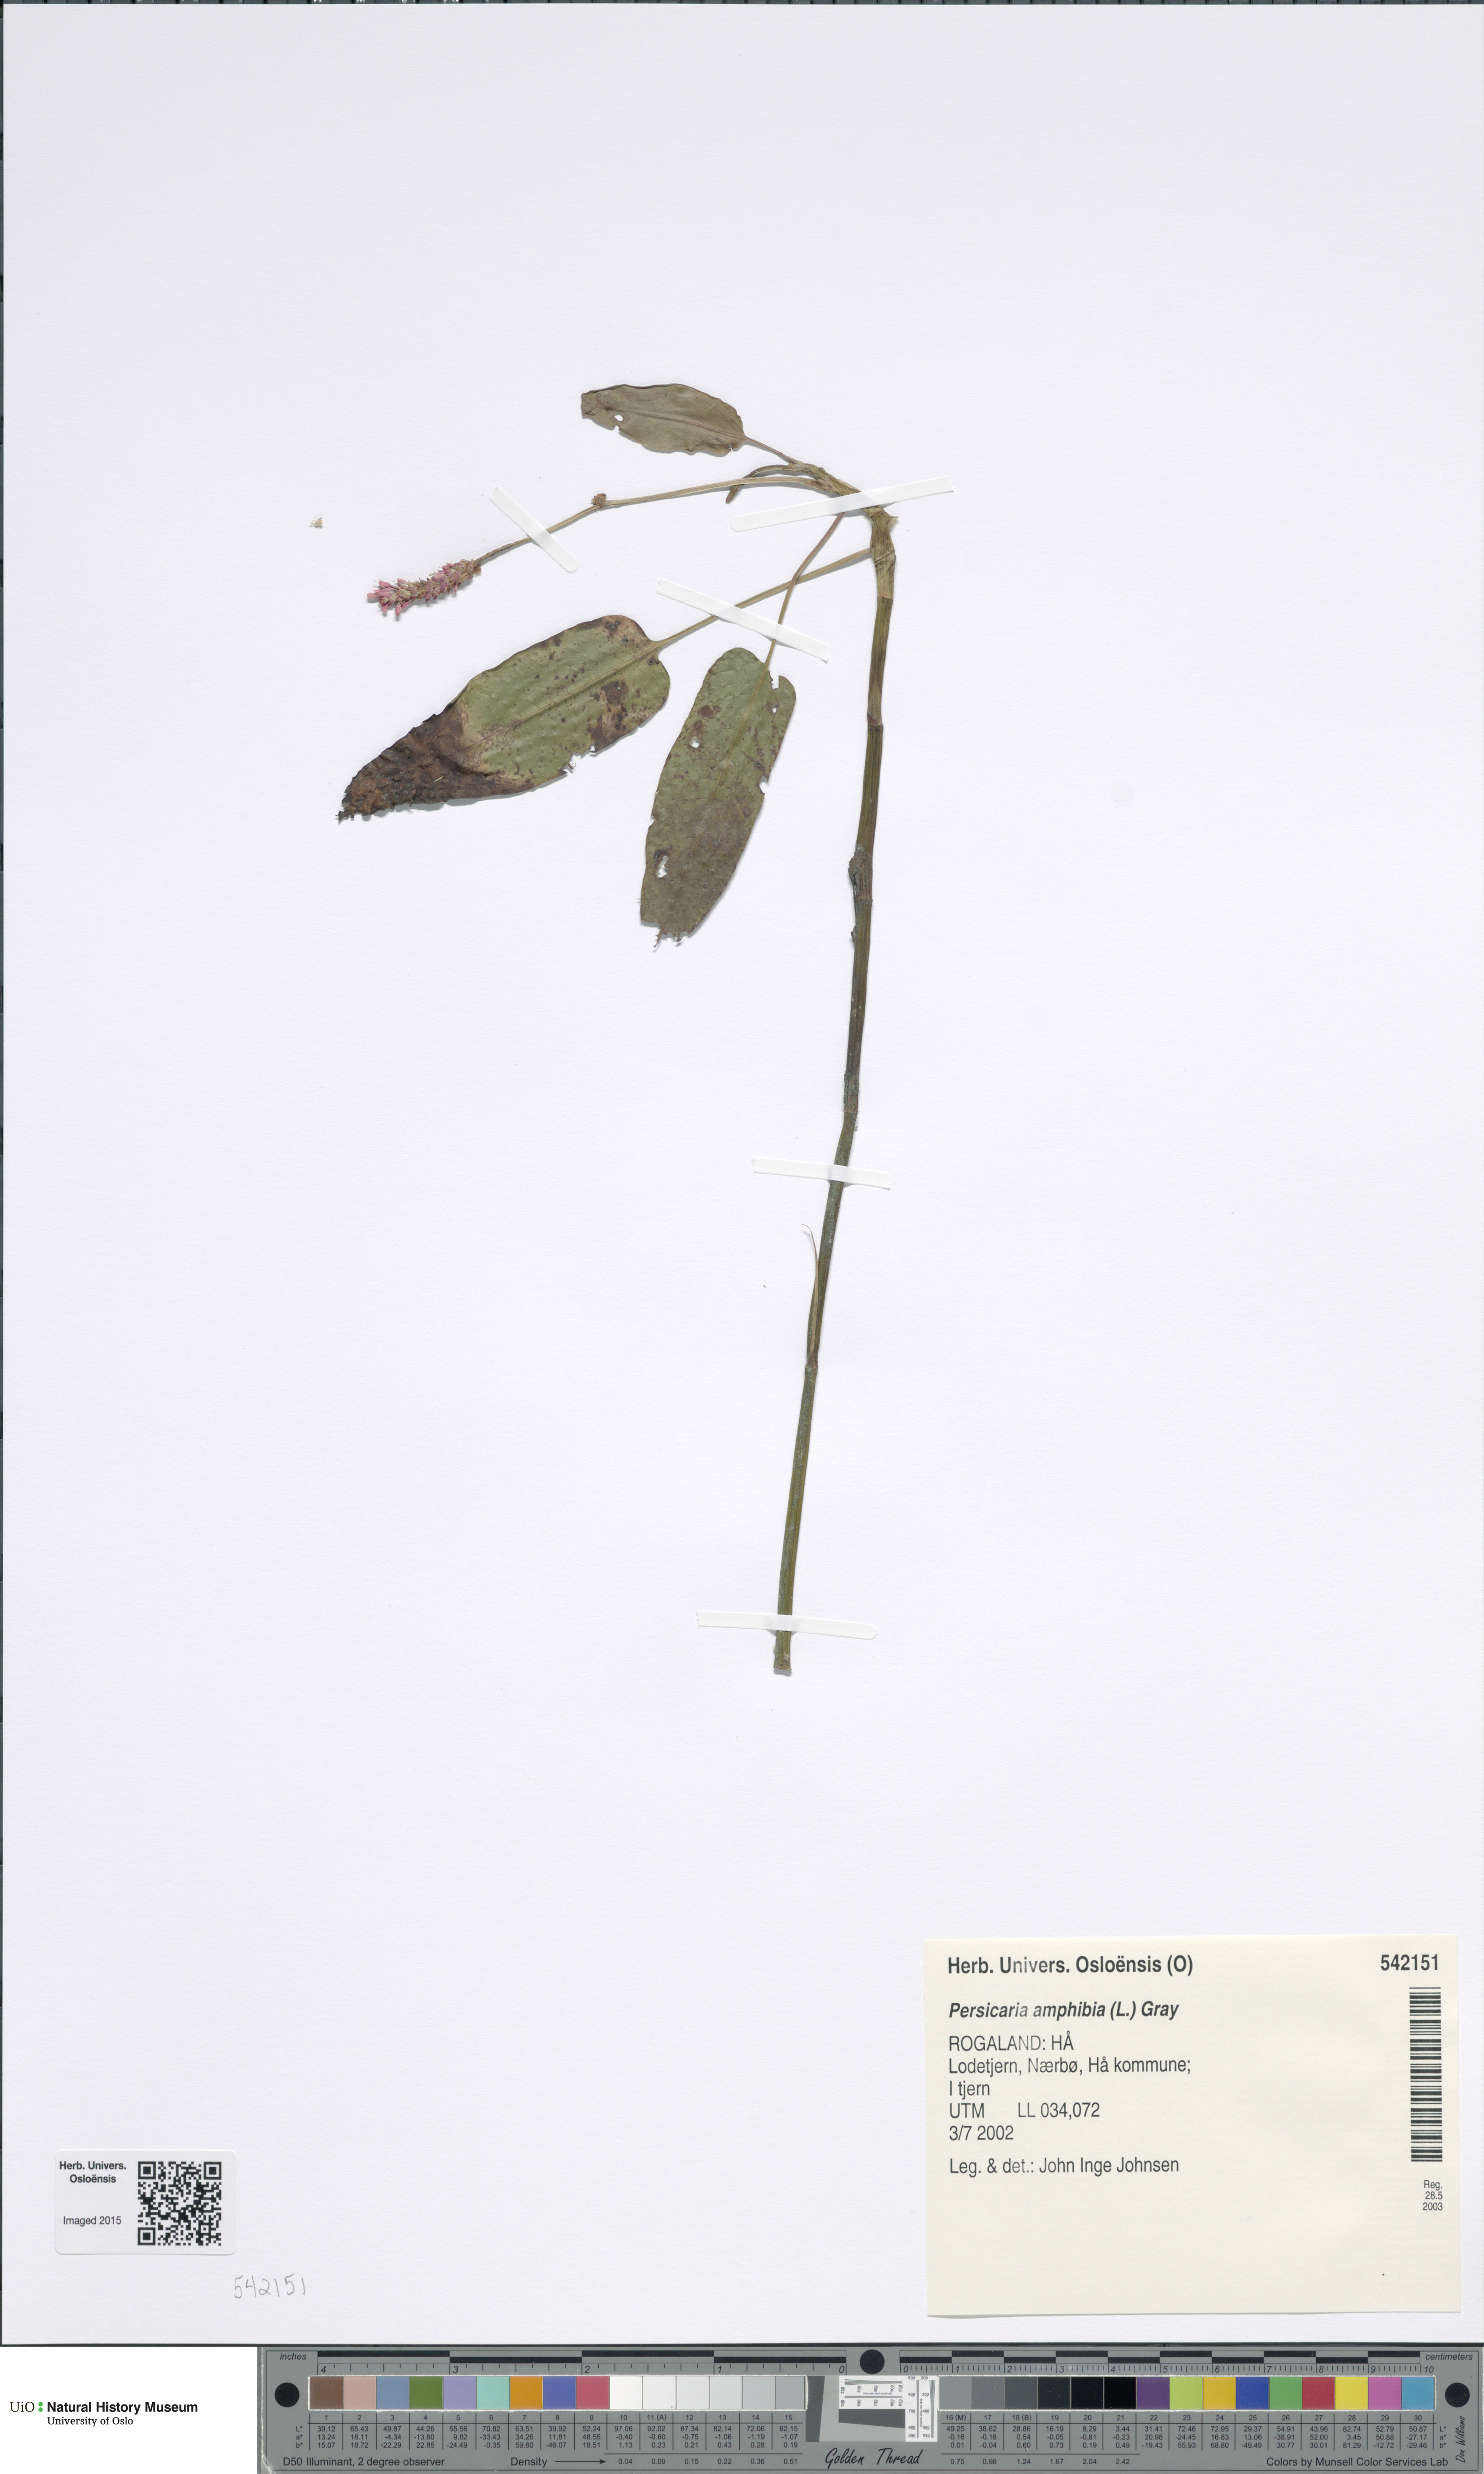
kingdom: Plantae
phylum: Tracheophyta
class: Magnoliopsida
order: Caryophyllales
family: Polygonaceae
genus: Persicaria
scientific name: Persicaria amphibia
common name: Amphibious bistort
